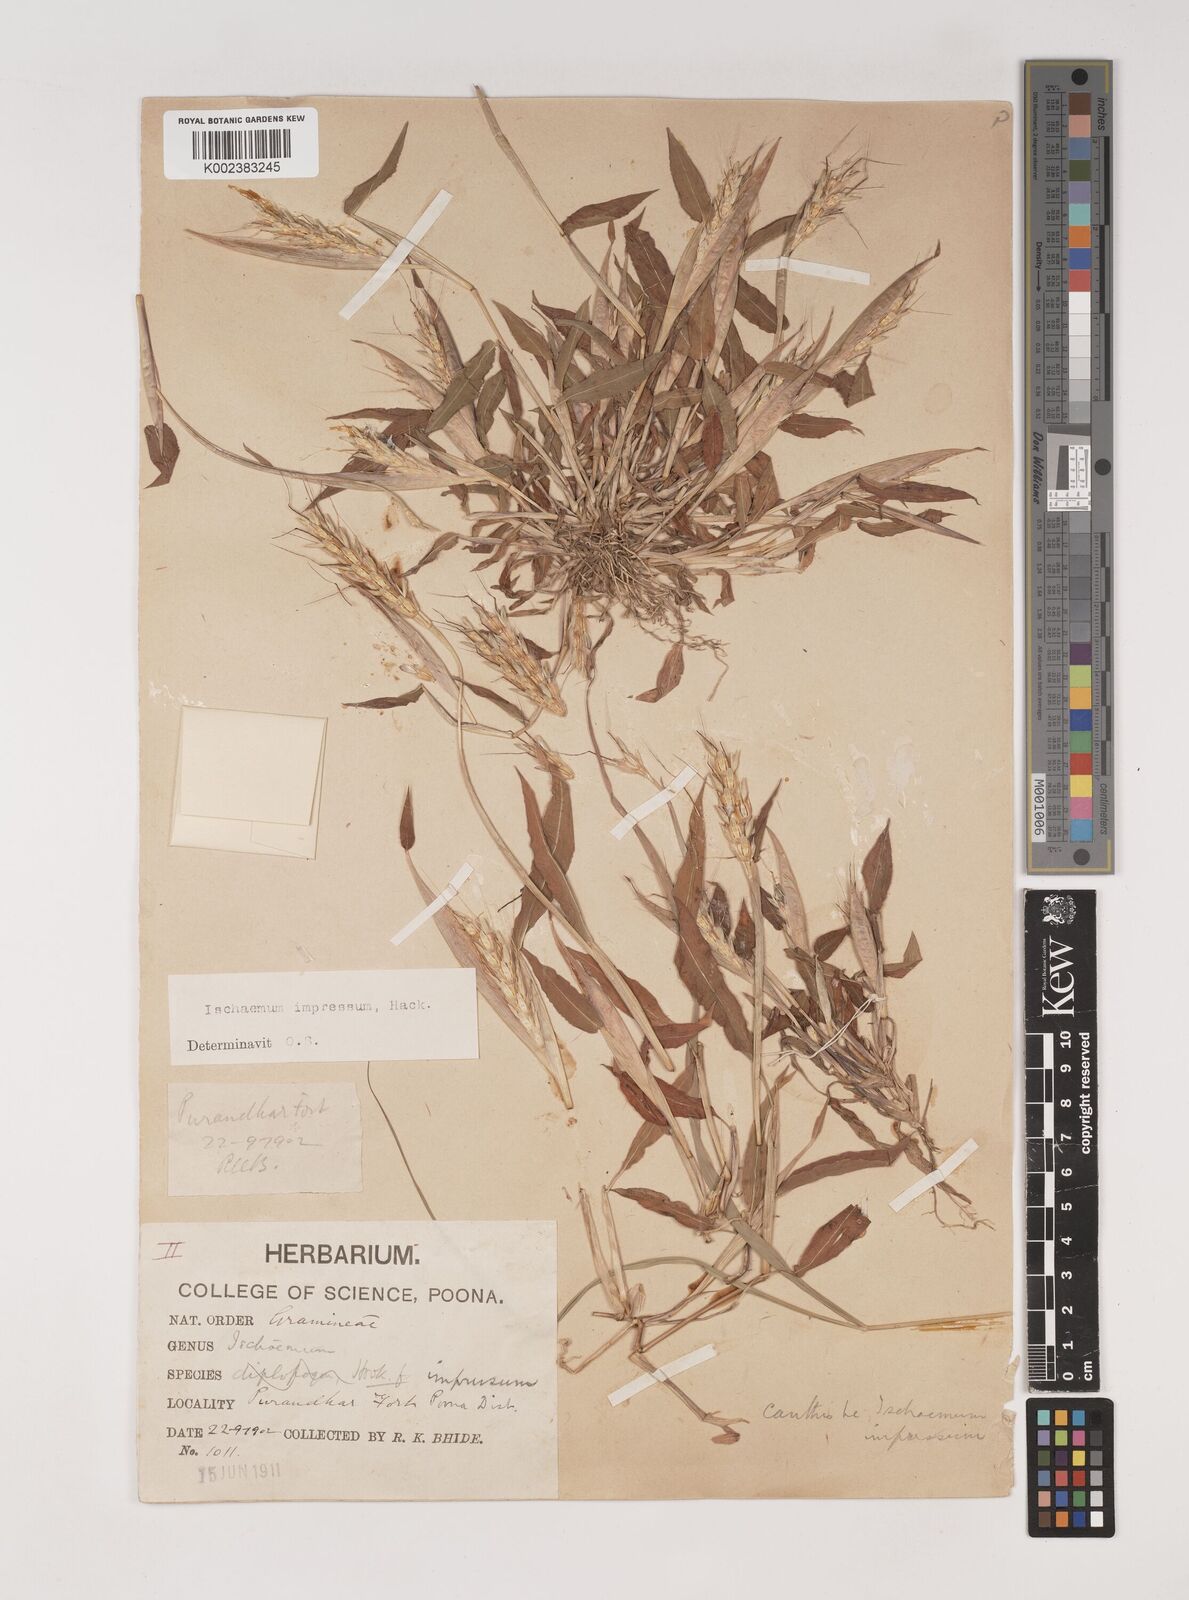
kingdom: Plantae
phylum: Tracheophyta
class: Liliopsida
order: Poales
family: Poaceae
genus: Ischaemum
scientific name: Ischaemum impressum
